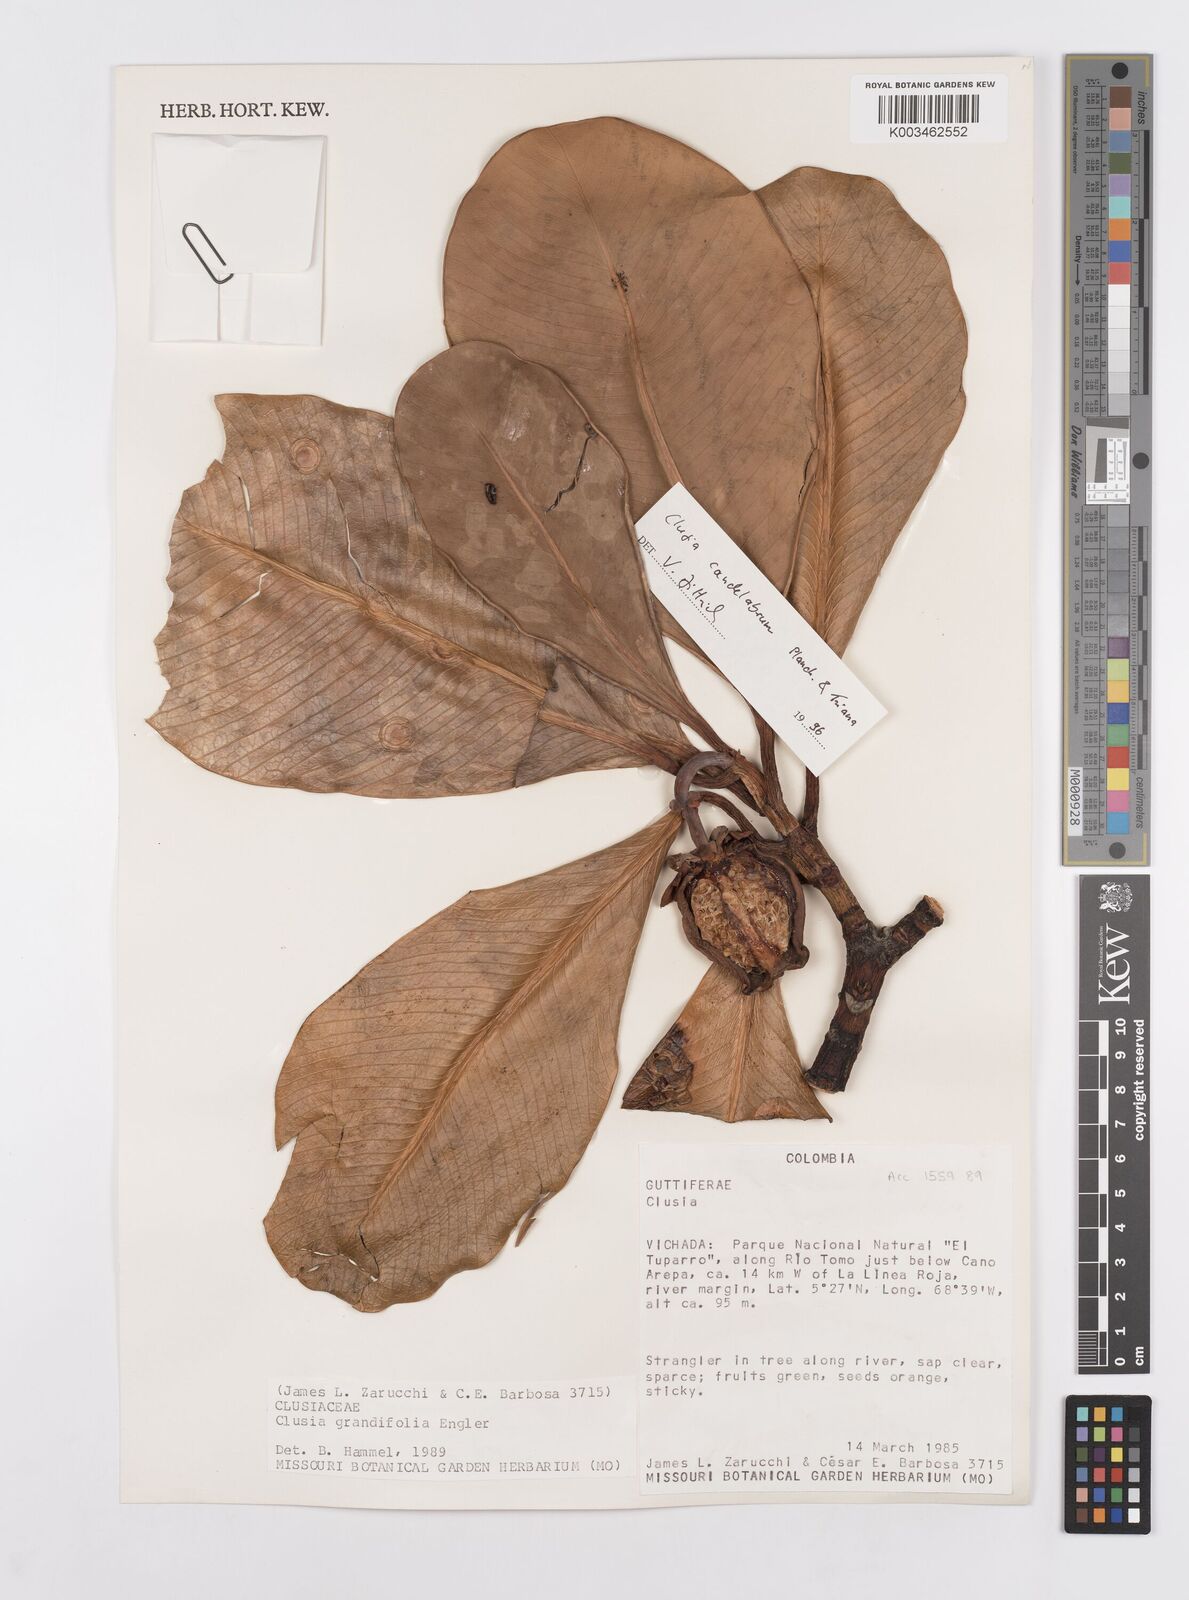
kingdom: Plantae
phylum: Tracheophyta
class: Magnoliopsida
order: Malpighiales
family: Clusiaceae
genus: Clusia
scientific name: Clusia candelabrum
